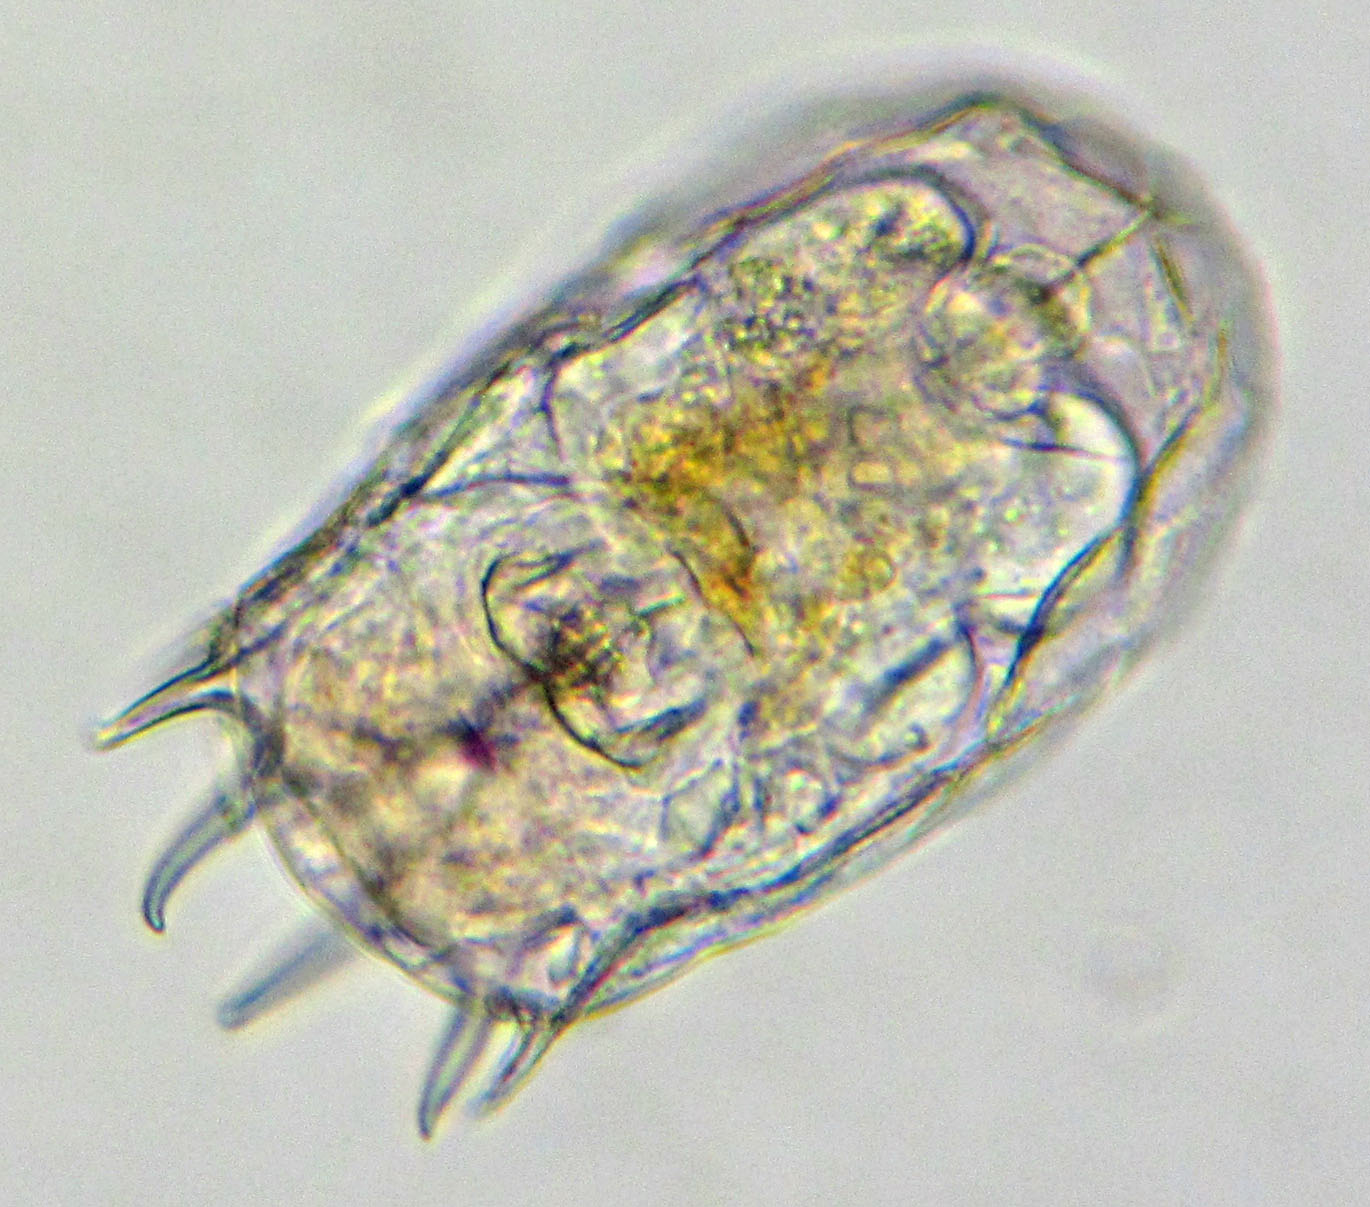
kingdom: Animalia
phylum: Rotifera
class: Eurotatoria
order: Ploima
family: Brachionidae
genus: Keratella
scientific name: Keratella cruciformis
